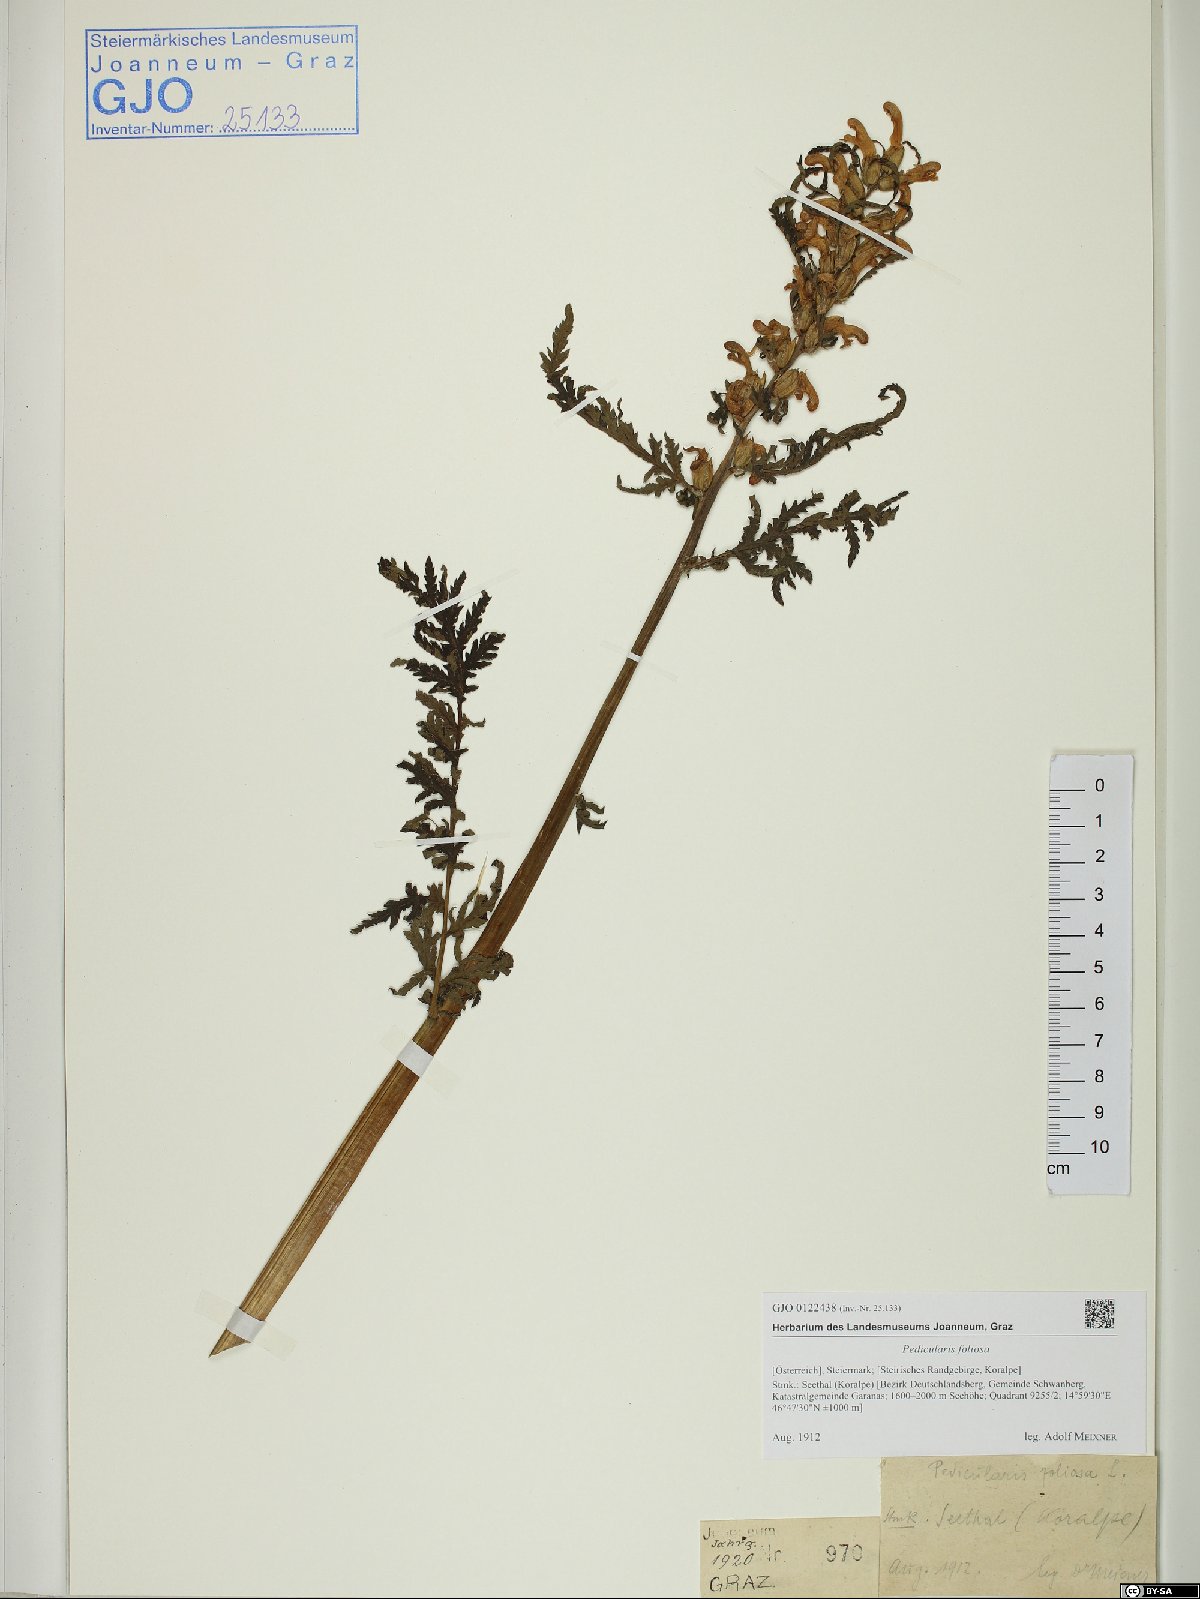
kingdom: Plantae
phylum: Tracheophyta
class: Magnoliopsida
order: Lamiales
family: Orobanchaceae
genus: Pedicularis
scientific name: Pedicularis foliosa
